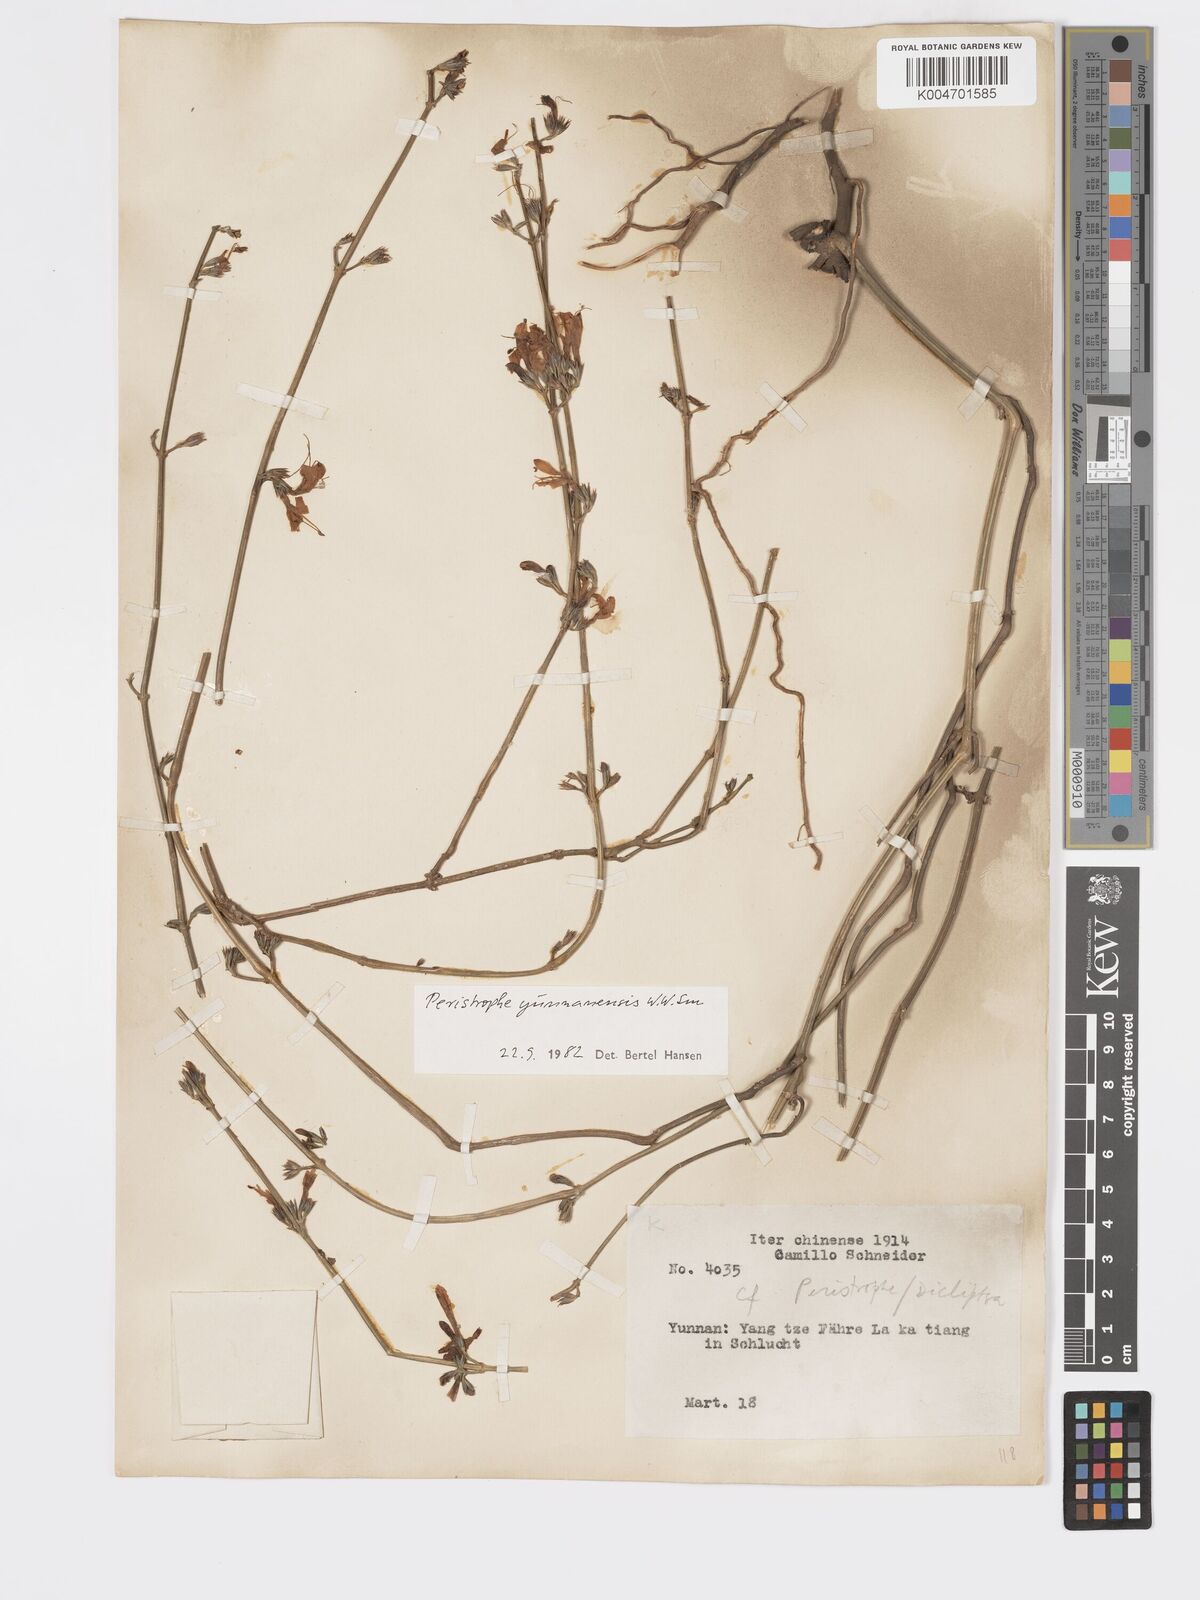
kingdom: Plantae
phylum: Tracheophyta
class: Magnoliopsida
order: Lamiales
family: Acanthaceae
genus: Dicliptera
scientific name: Dicliptera
